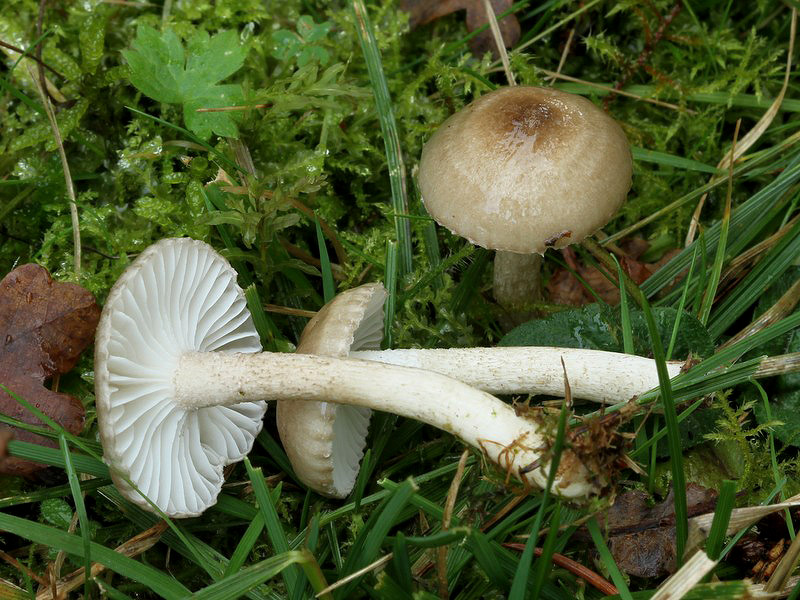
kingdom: Fungi
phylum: Basidiomycota
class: Agaricomycetes
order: Agaricales
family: Hygrophoraceae
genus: Hygrophorus
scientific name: Hygrophorus pustulatus
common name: mørkprikket sneglehat
